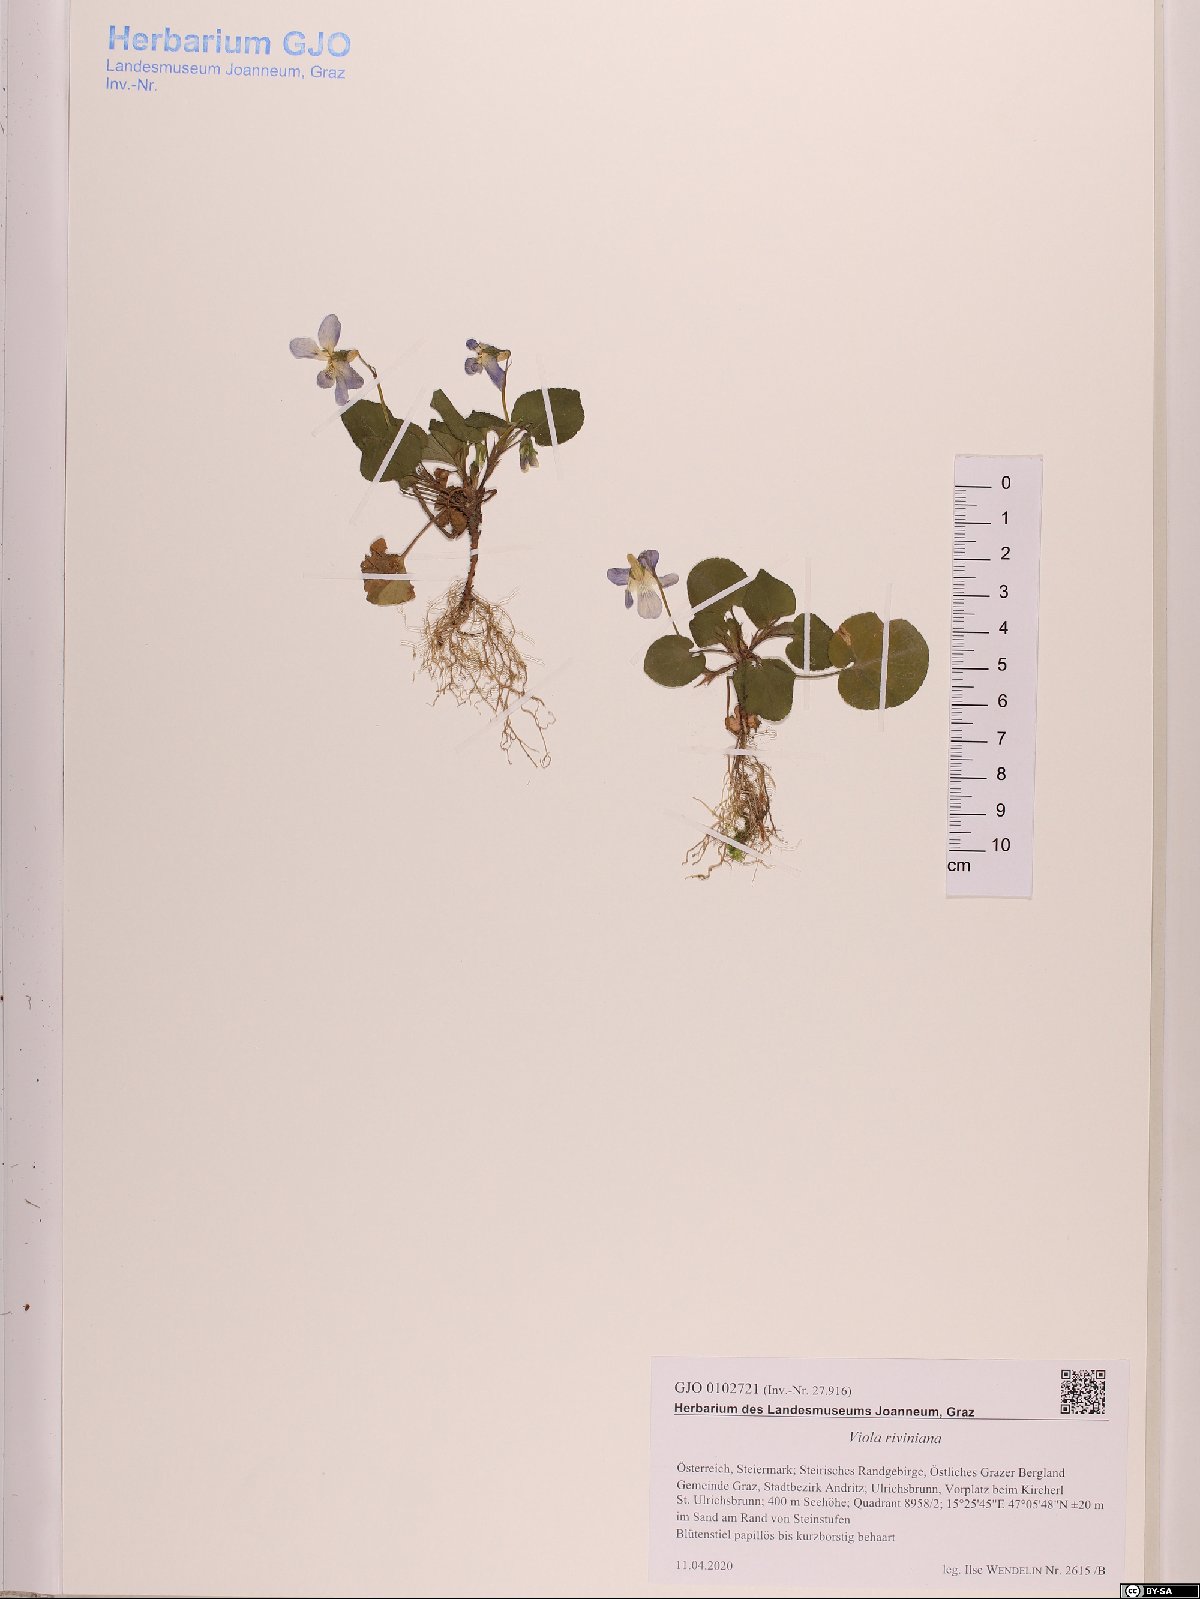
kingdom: Plantae
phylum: Tracheophyta
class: Magnoliopsida
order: Malpighiales
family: Violaceae
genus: Viola
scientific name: Viola riviniana
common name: Common dog-violet
